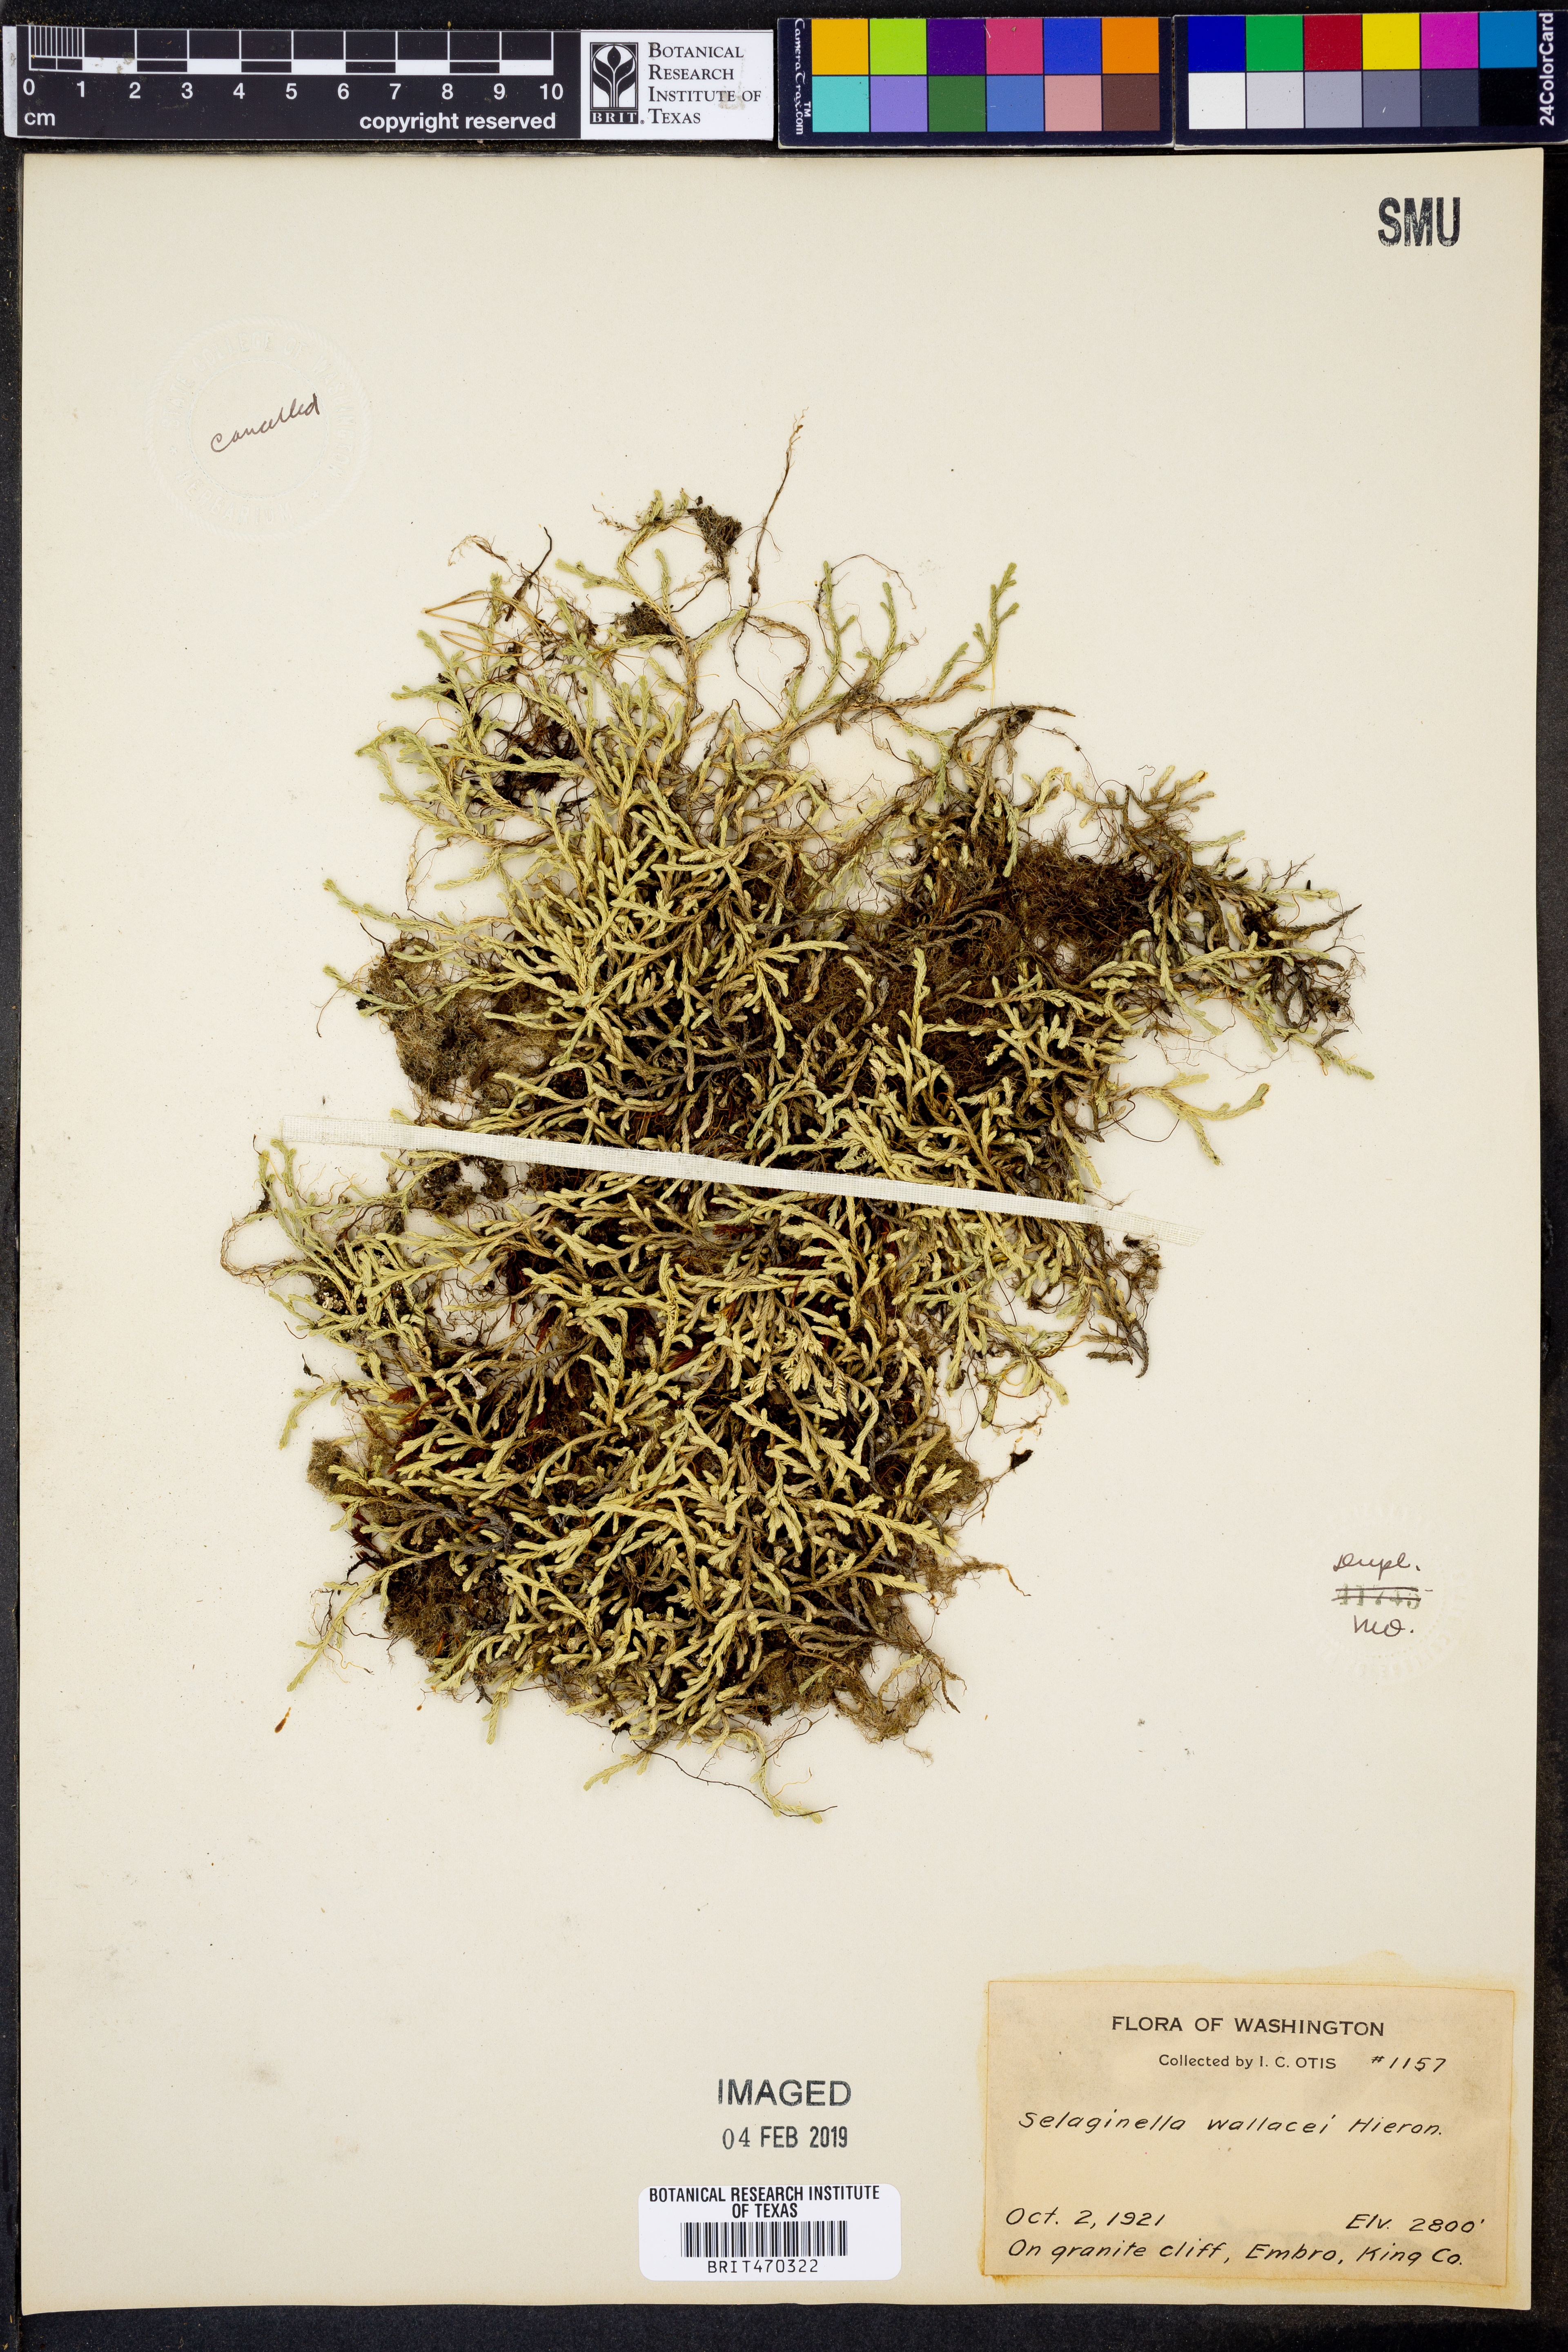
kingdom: Plantae
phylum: Tracheophyta
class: Lycopodiopsida
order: Selaginellales
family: Selaginellaceae
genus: Selaginella
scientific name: Selaginella wallacei
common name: Wallace's selaginella
